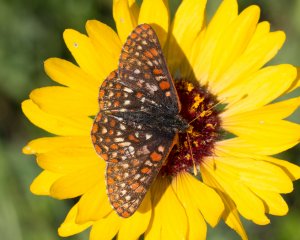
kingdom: Animalia
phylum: Arthropoda
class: Insecta
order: Lepidoptera
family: Nymphalidae
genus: Occidryas
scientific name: Occidryas anicia
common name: Anicia Checkerspot
